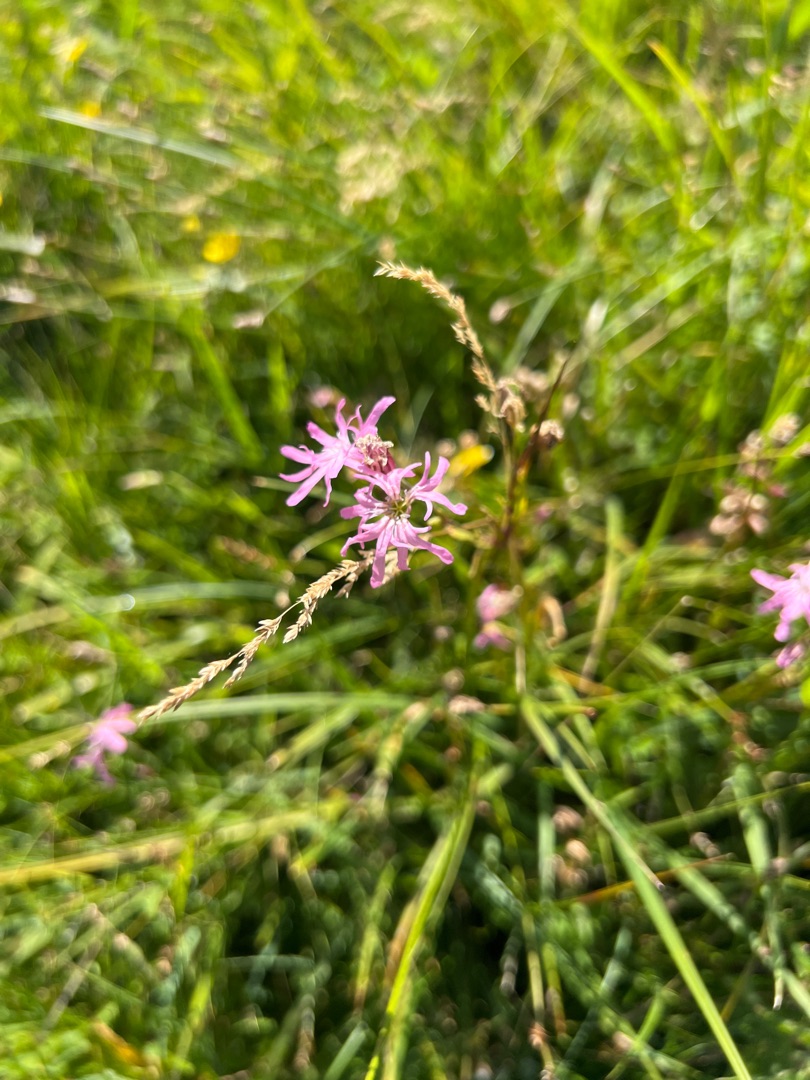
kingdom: Plantae
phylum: Tracheophyta
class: Magnoliopsida
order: Caryophyllales
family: Caryophyllaceae
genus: Silene
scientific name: Silene flos-cuculi
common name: Trævlekrone
